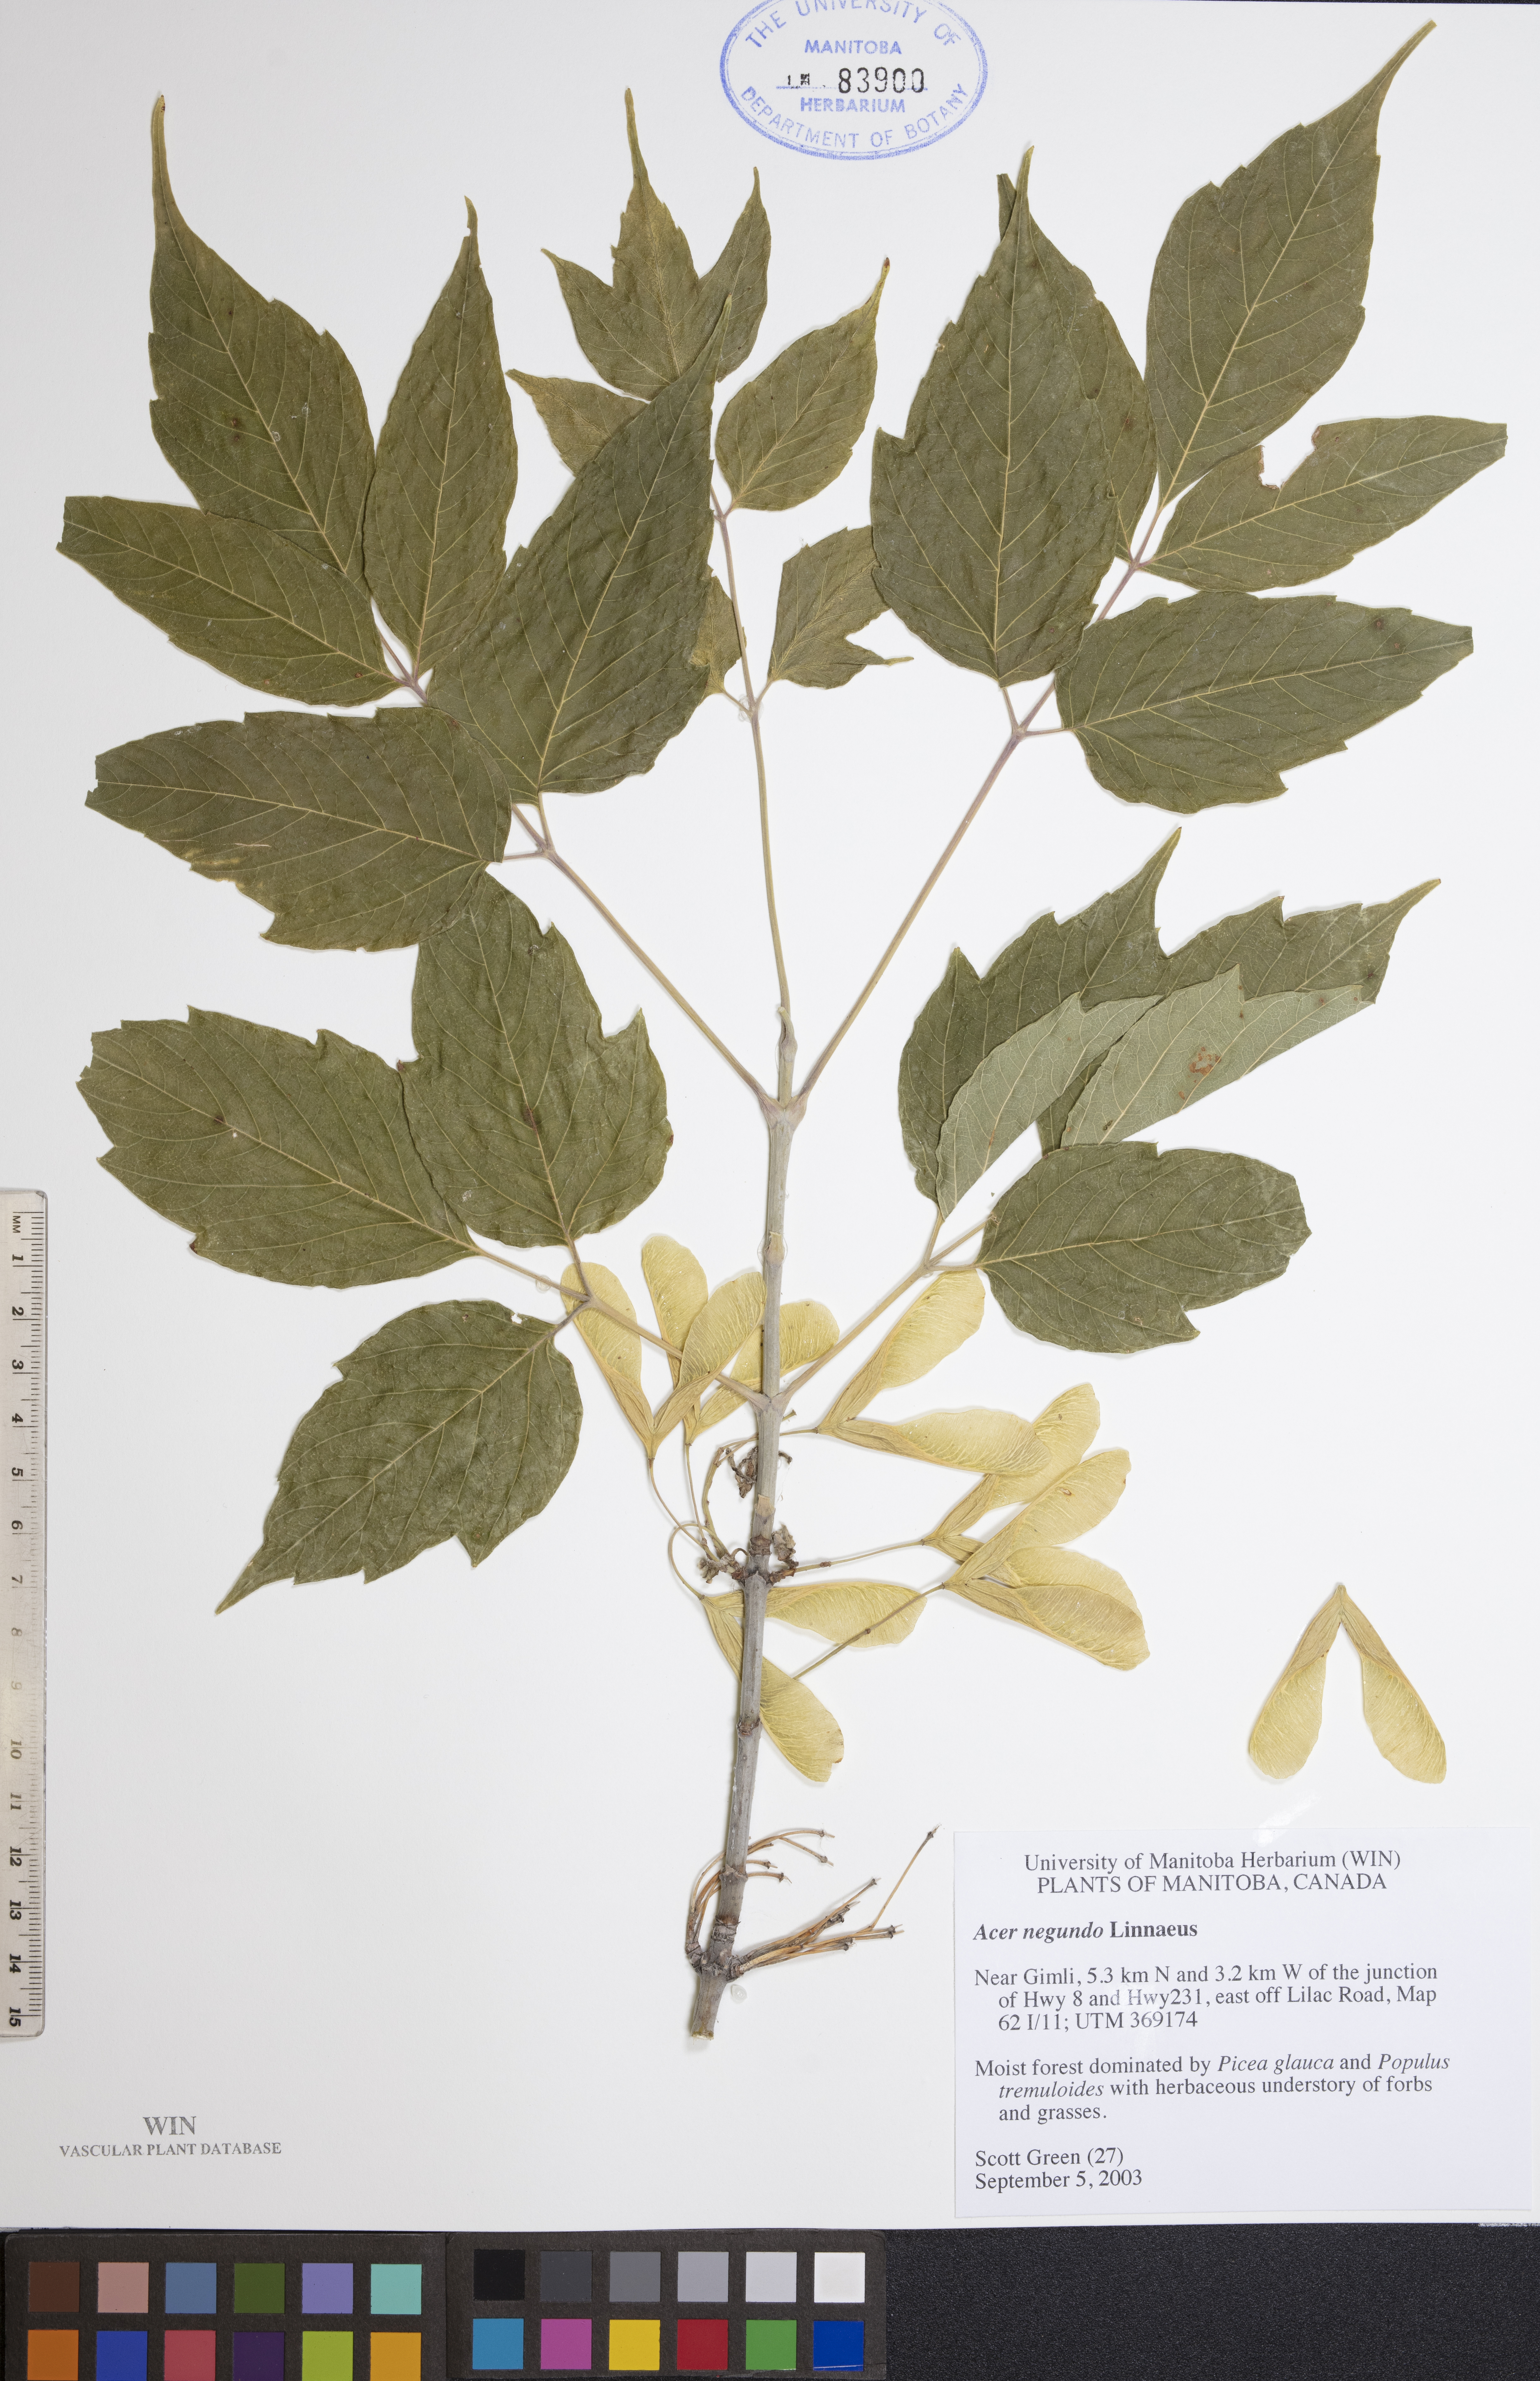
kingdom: Plantae
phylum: Tracheophyta
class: Magnoliopsida
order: Sapindales
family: Sapindaceae
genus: Acer
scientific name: Acer negundo
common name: Ashleaf maple
